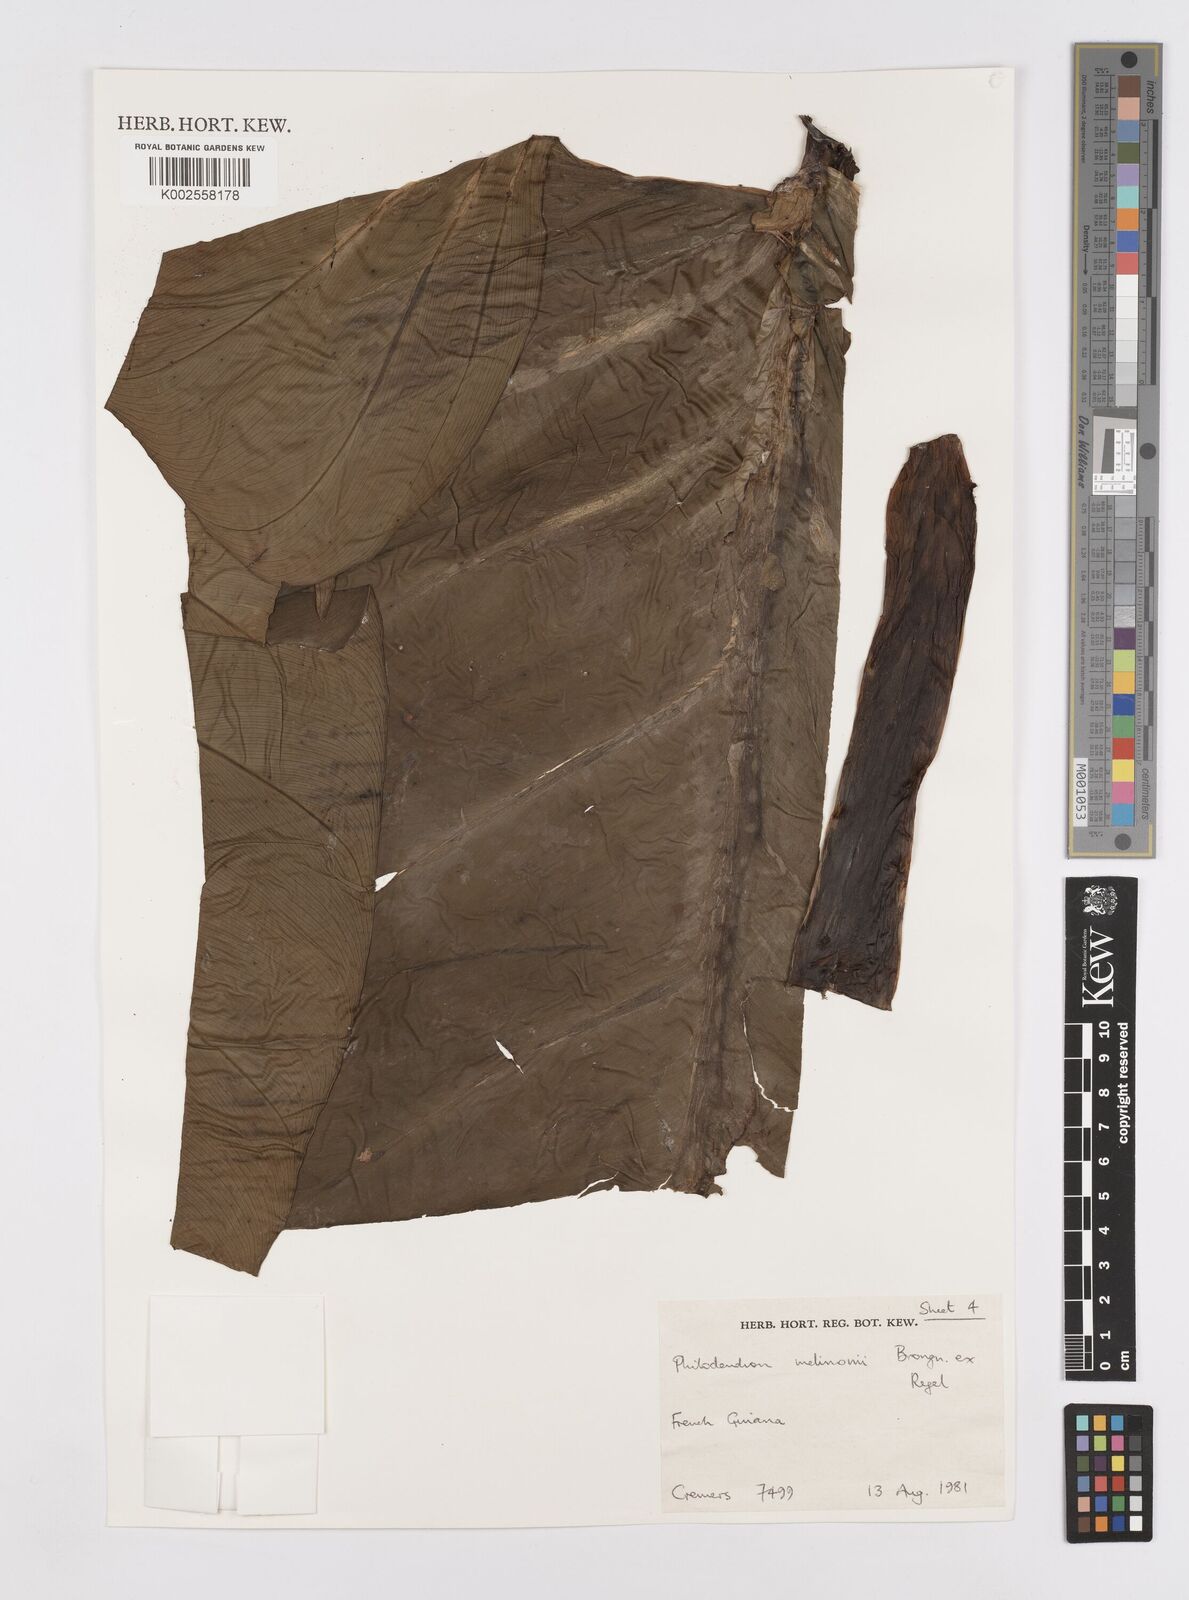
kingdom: Plantae
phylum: Tracheophyta
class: Liliopsida
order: Alismatales
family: Araceae
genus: Philodendron
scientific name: Philodendron melinonii
